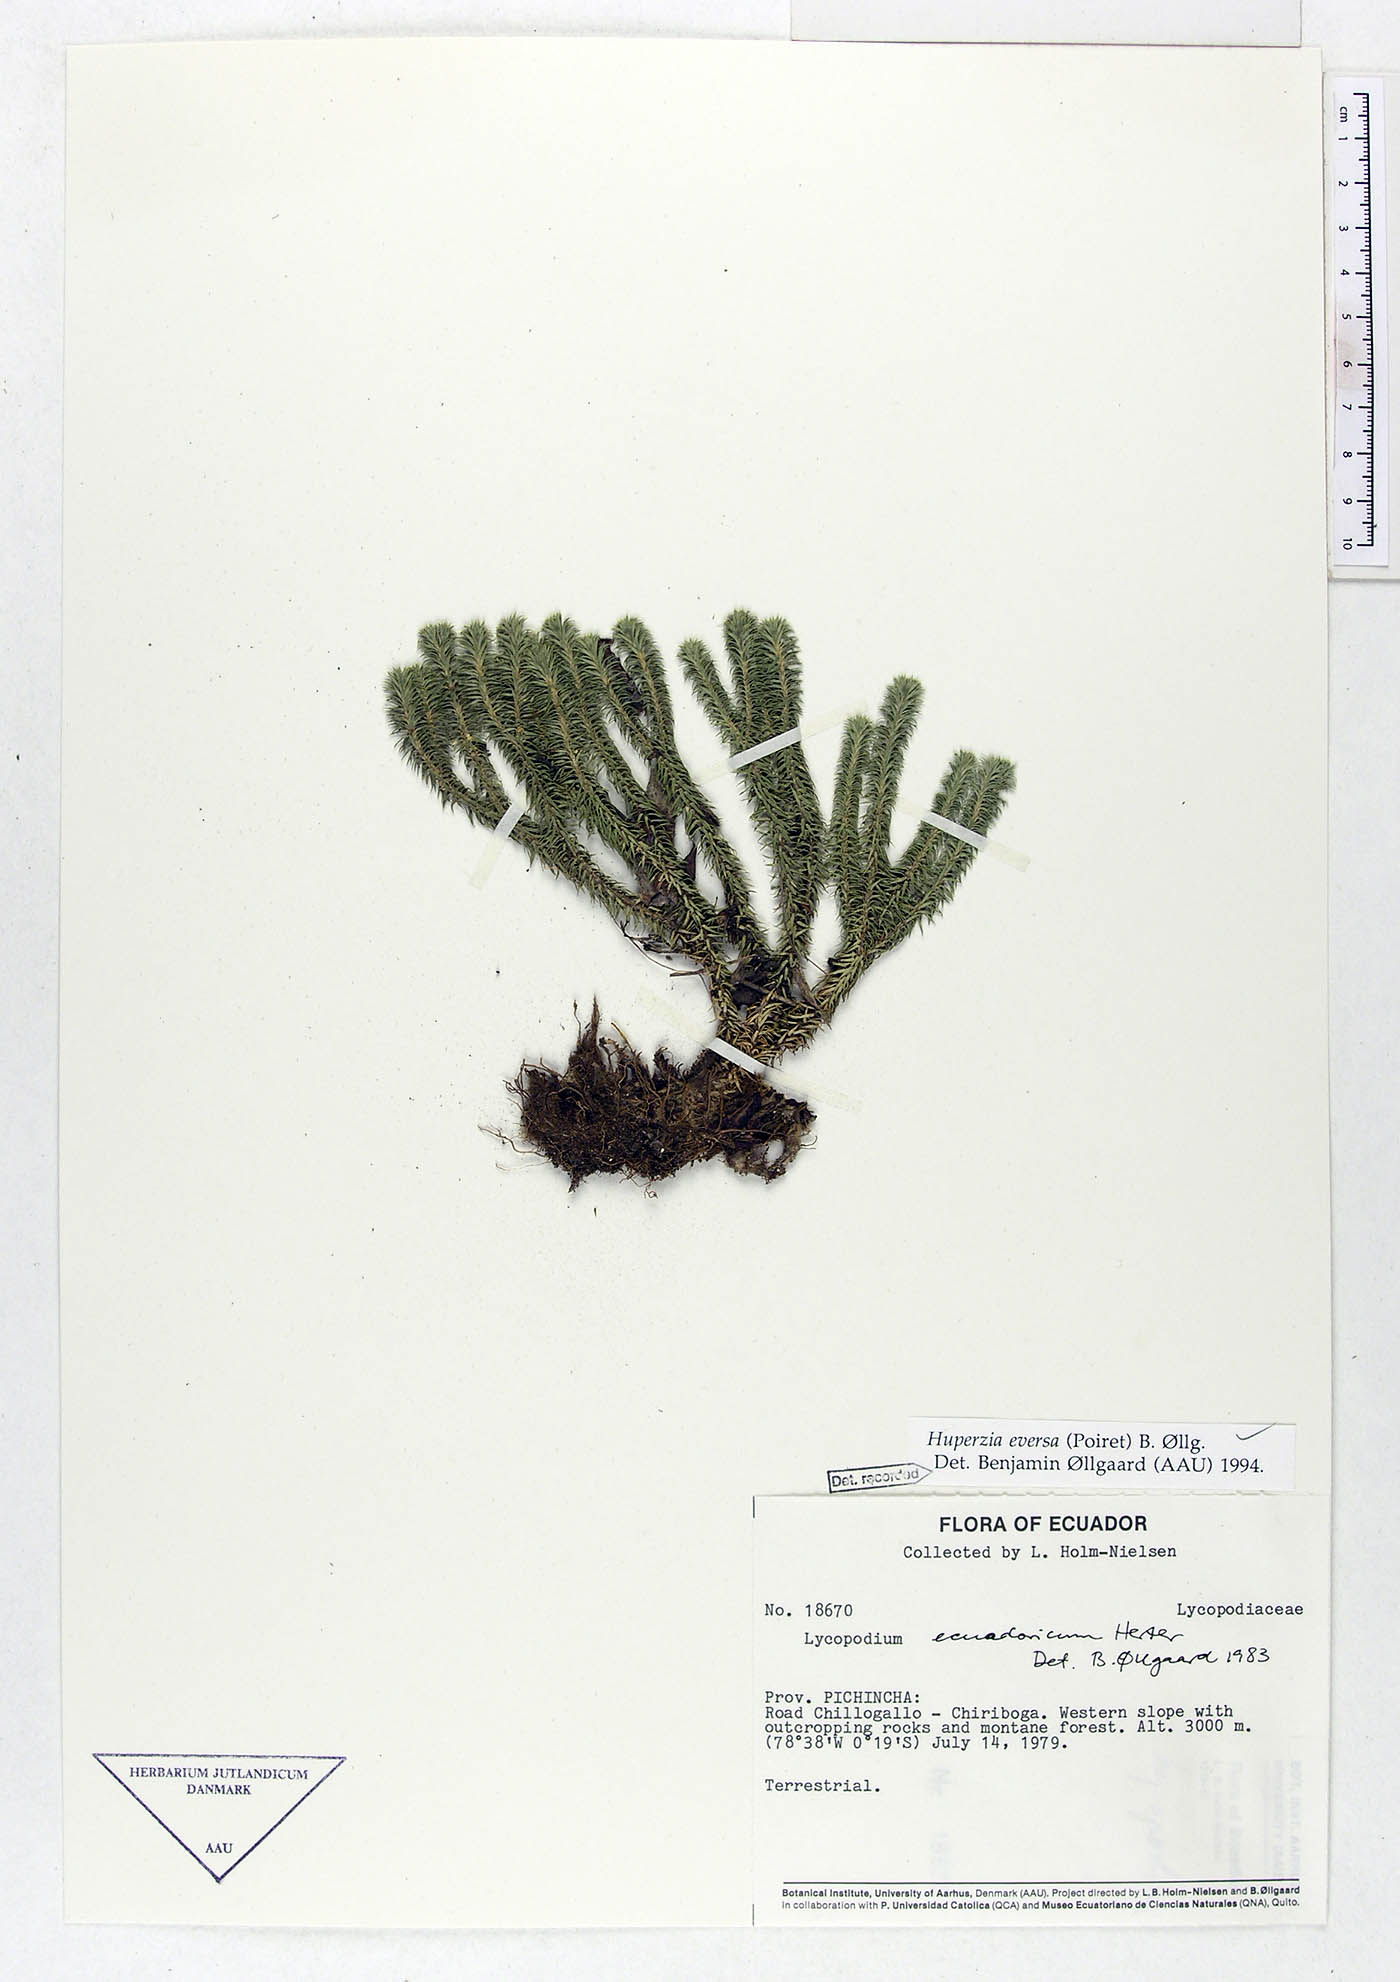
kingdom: Plantae
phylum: Tracheophyta
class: Lycopodiopsida
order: Lycopodiales
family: Lycopodiaceae
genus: Phlegmariurus
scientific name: Phlegmariurus eversus
